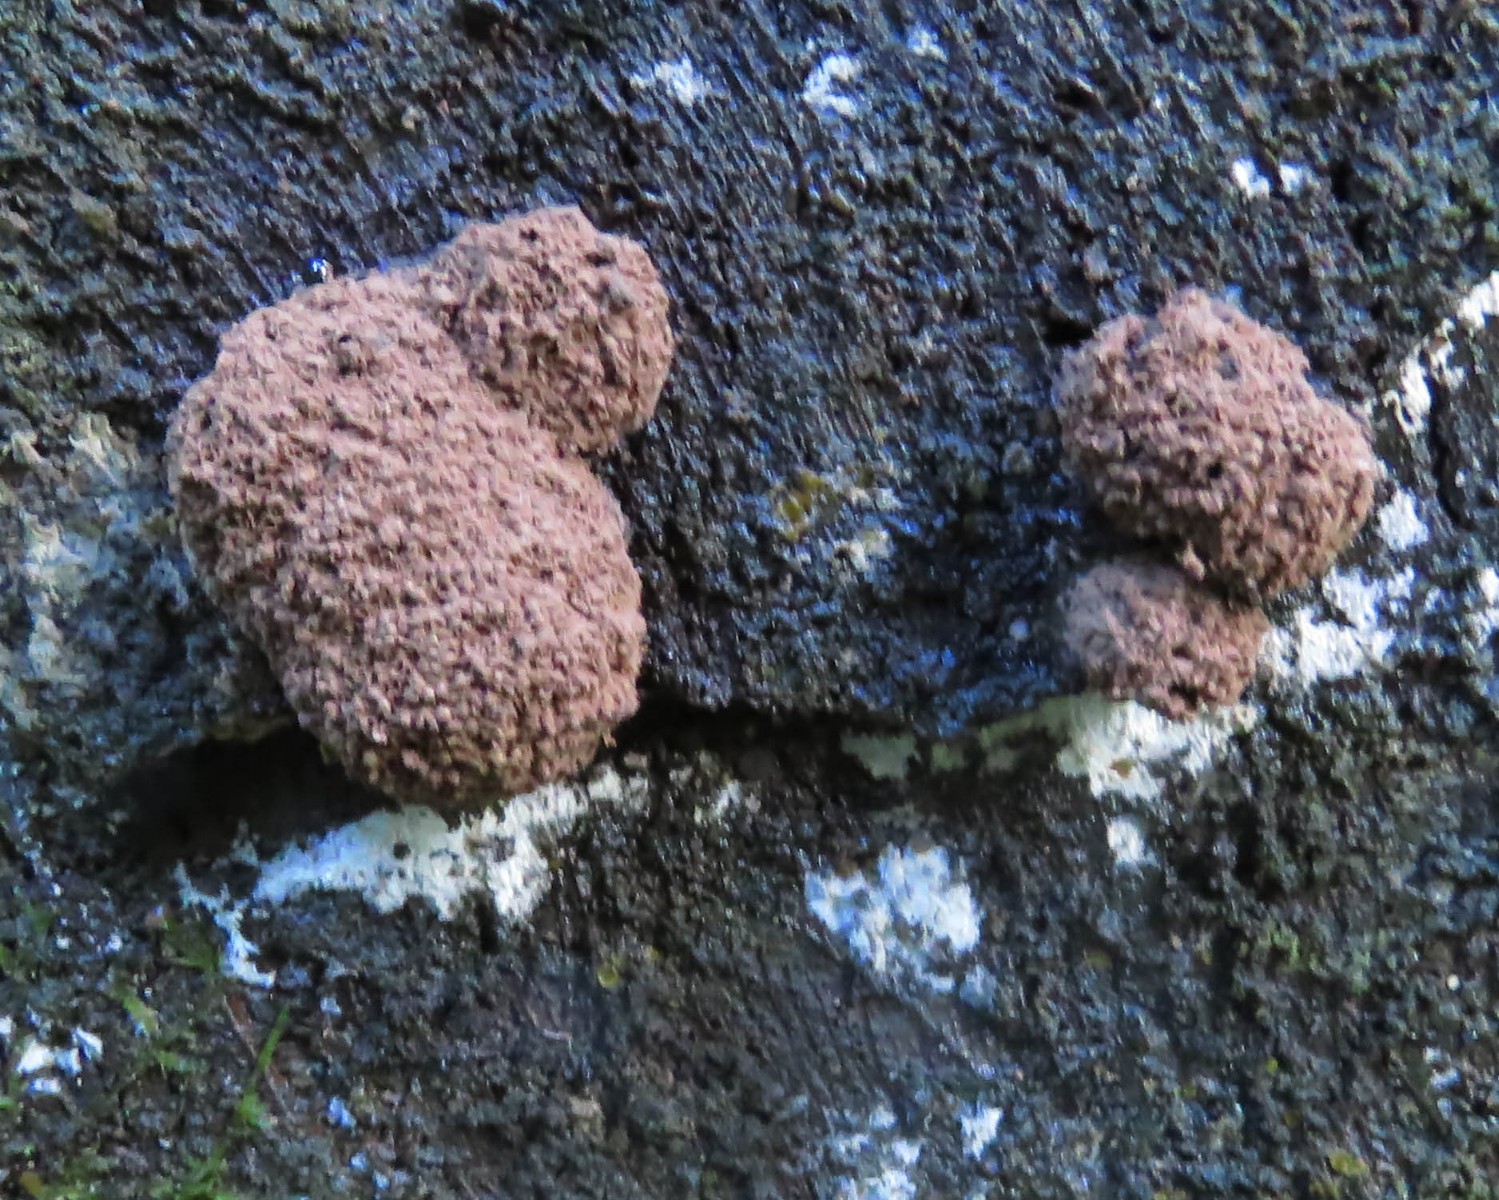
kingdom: Protozoa
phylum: Mycetozoa
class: Myxomycetes
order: Cribrariales
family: Tubiferaceae
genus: Tubifera
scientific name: Tubifera ferruginosa
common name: kanel-støvrør
